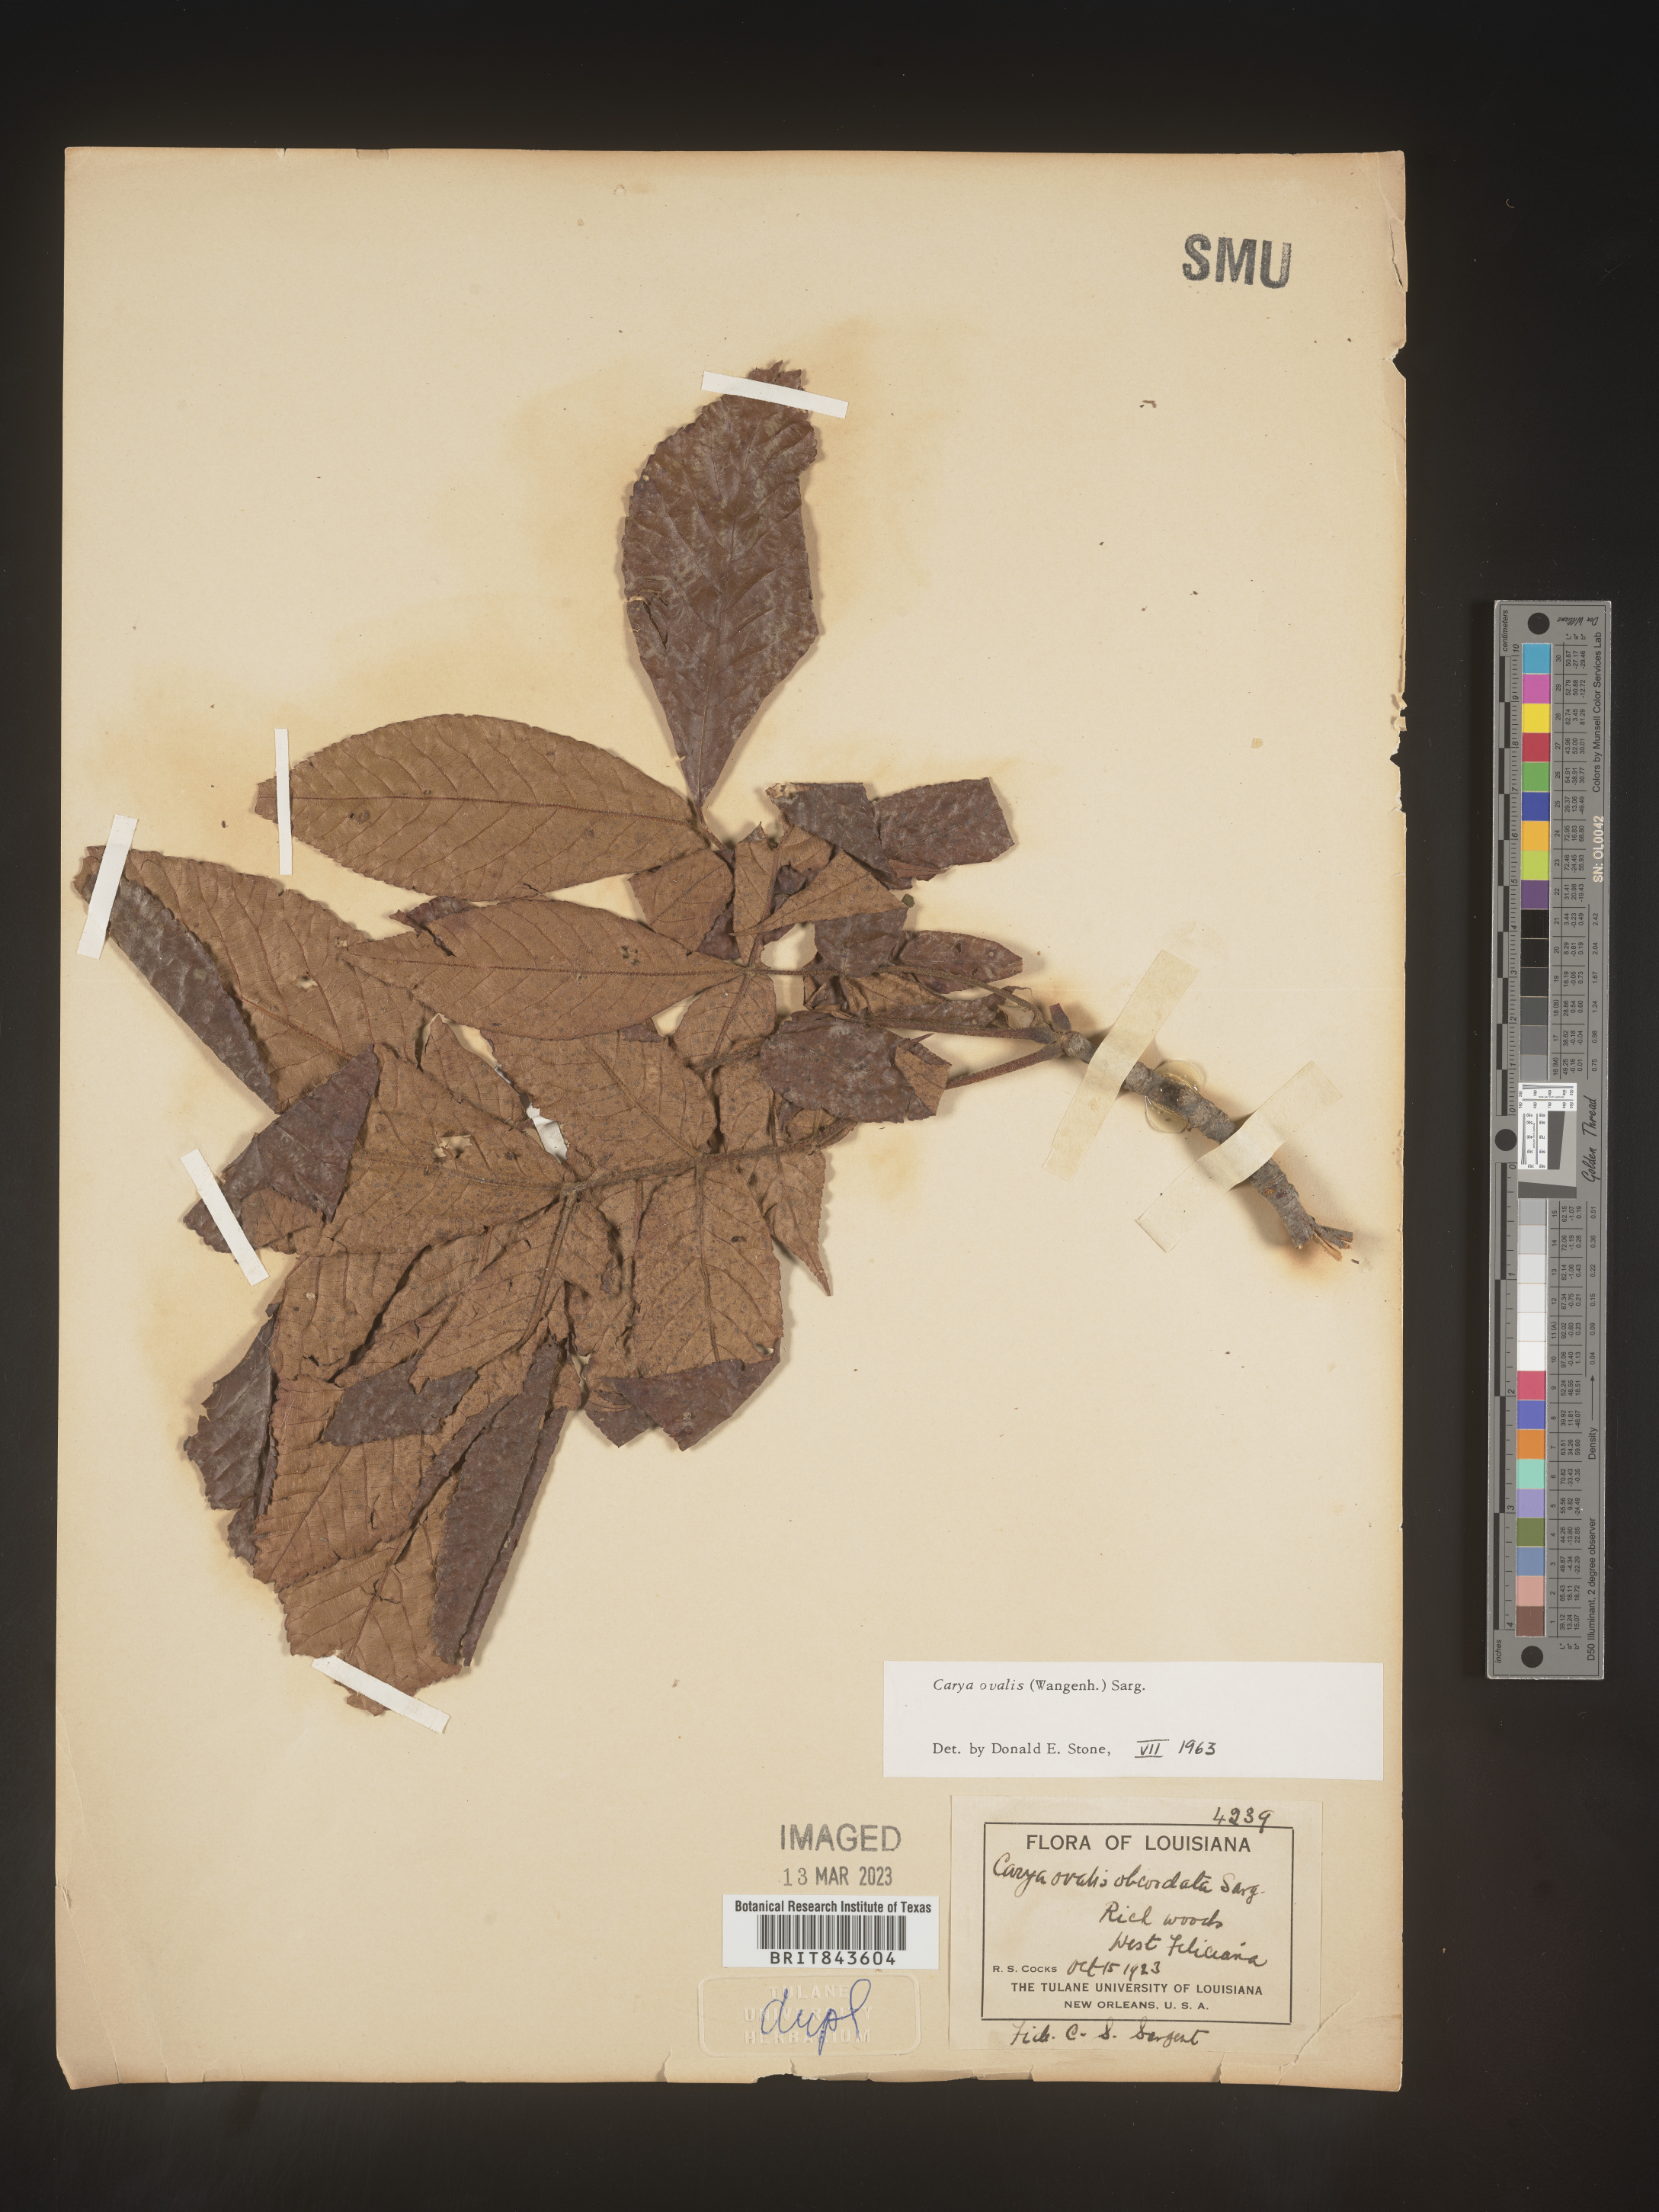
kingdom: Plantae
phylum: Tracheophyta
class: Magnoliopsida
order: Fagales
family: Juglandaceae
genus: Carya
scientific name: Carya ovalis
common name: False shagbark
